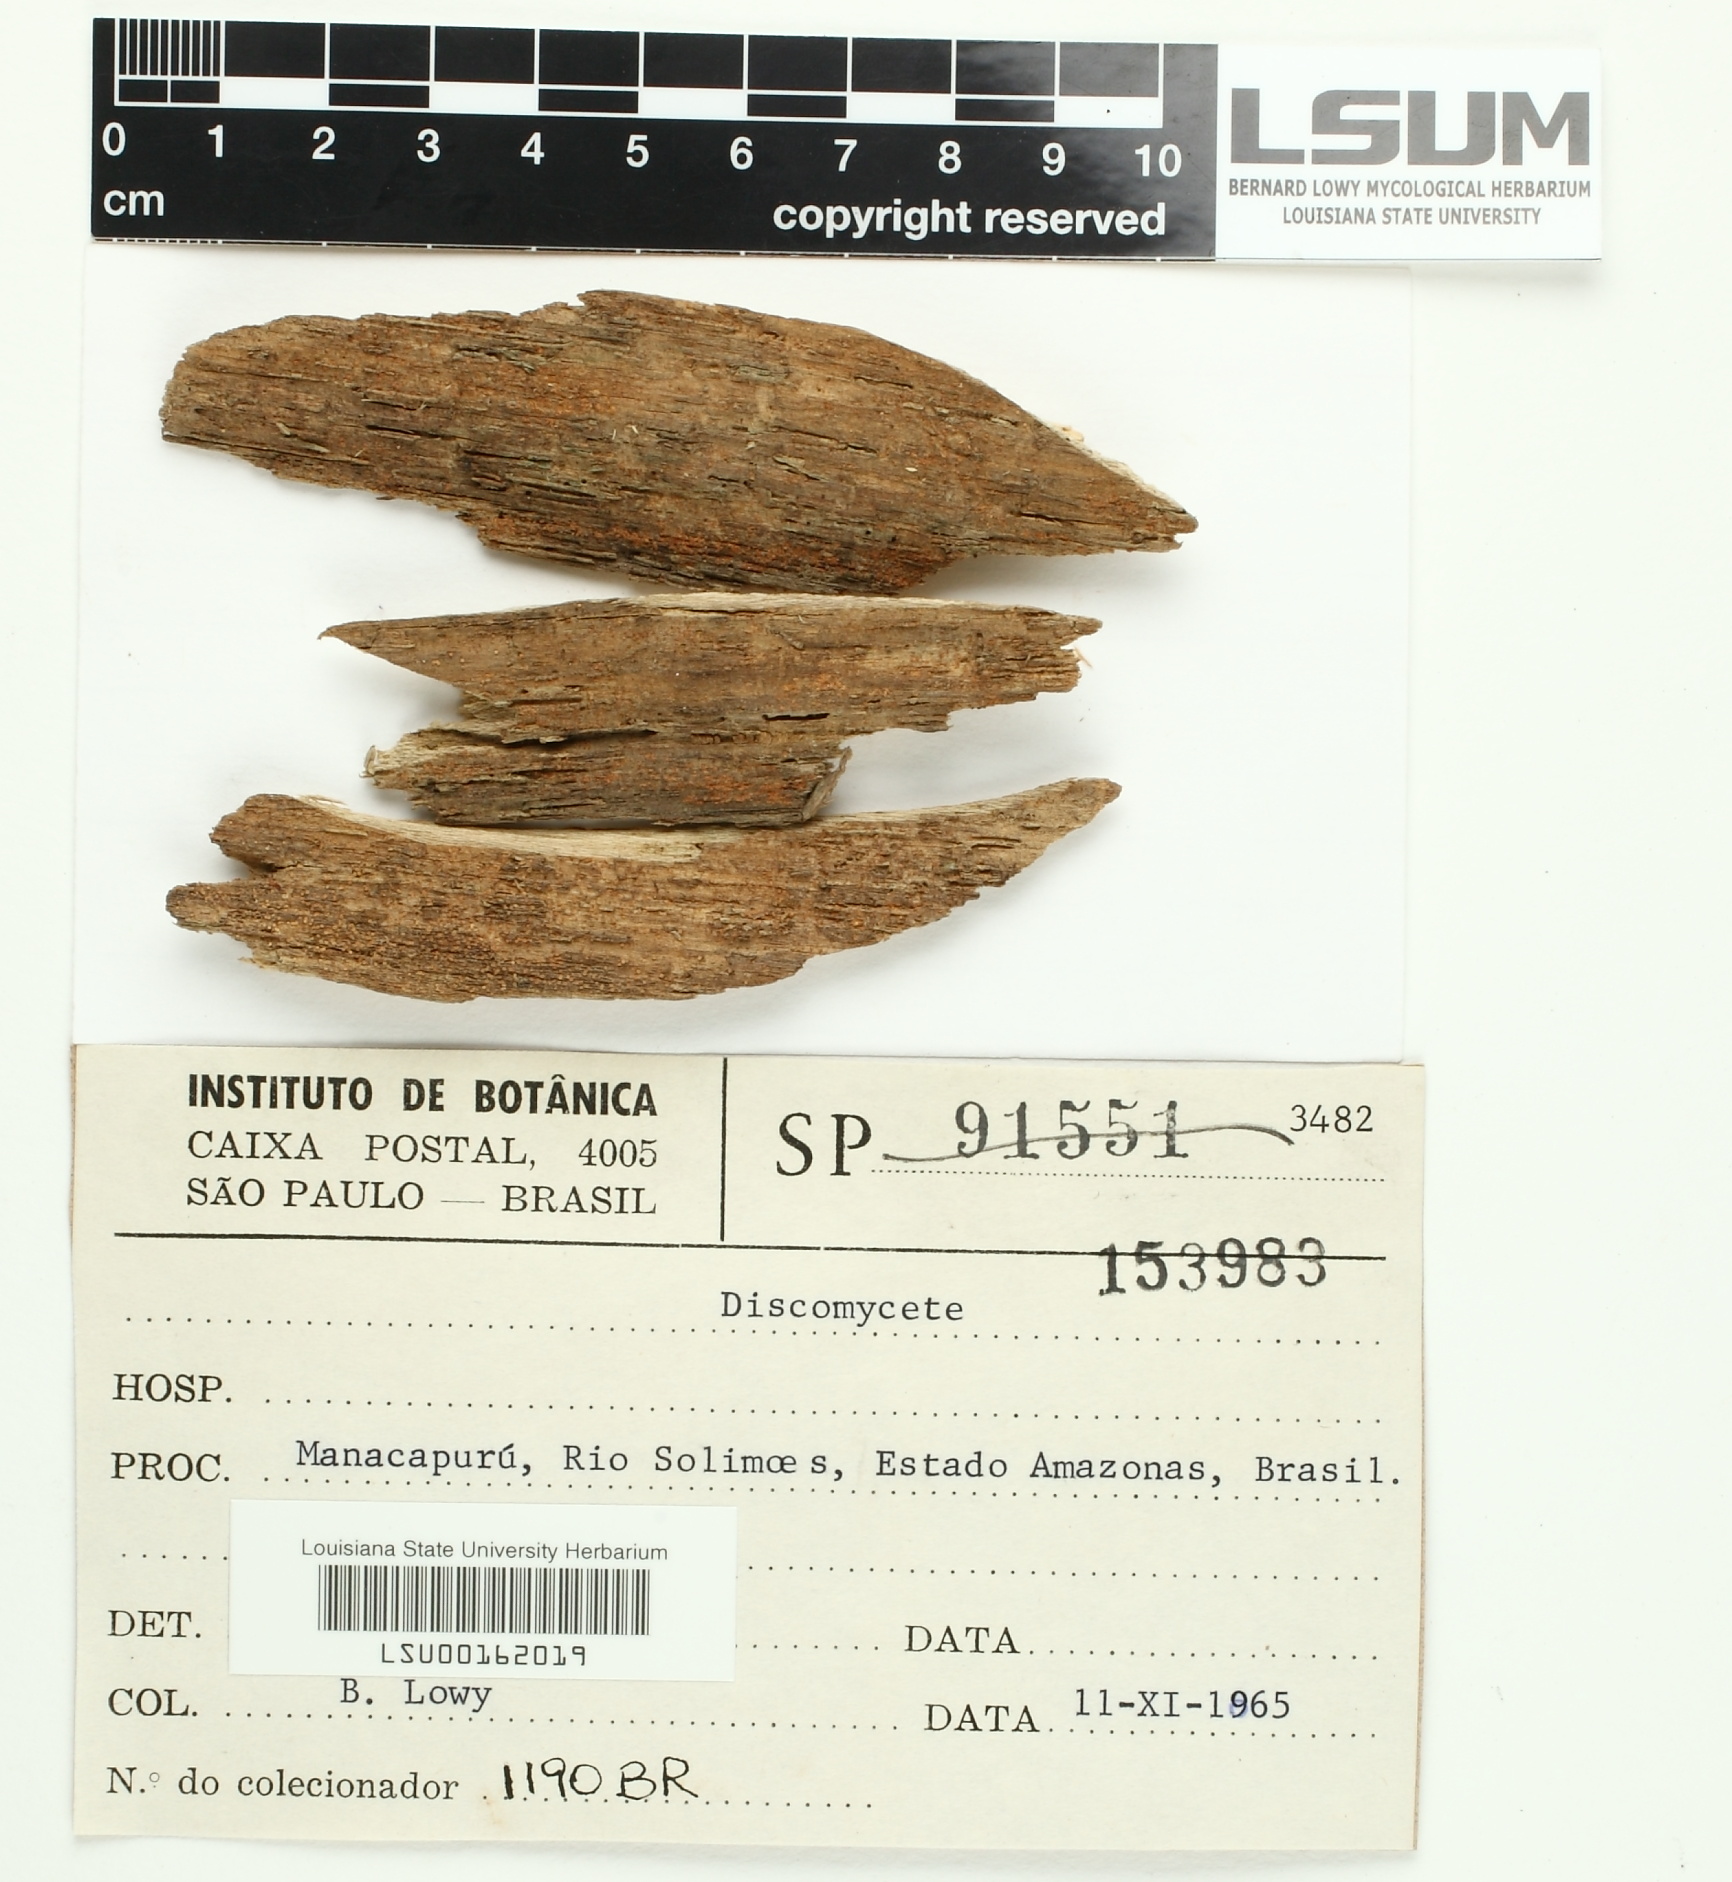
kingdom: Fungi
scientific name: Fungi
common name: Fungi
